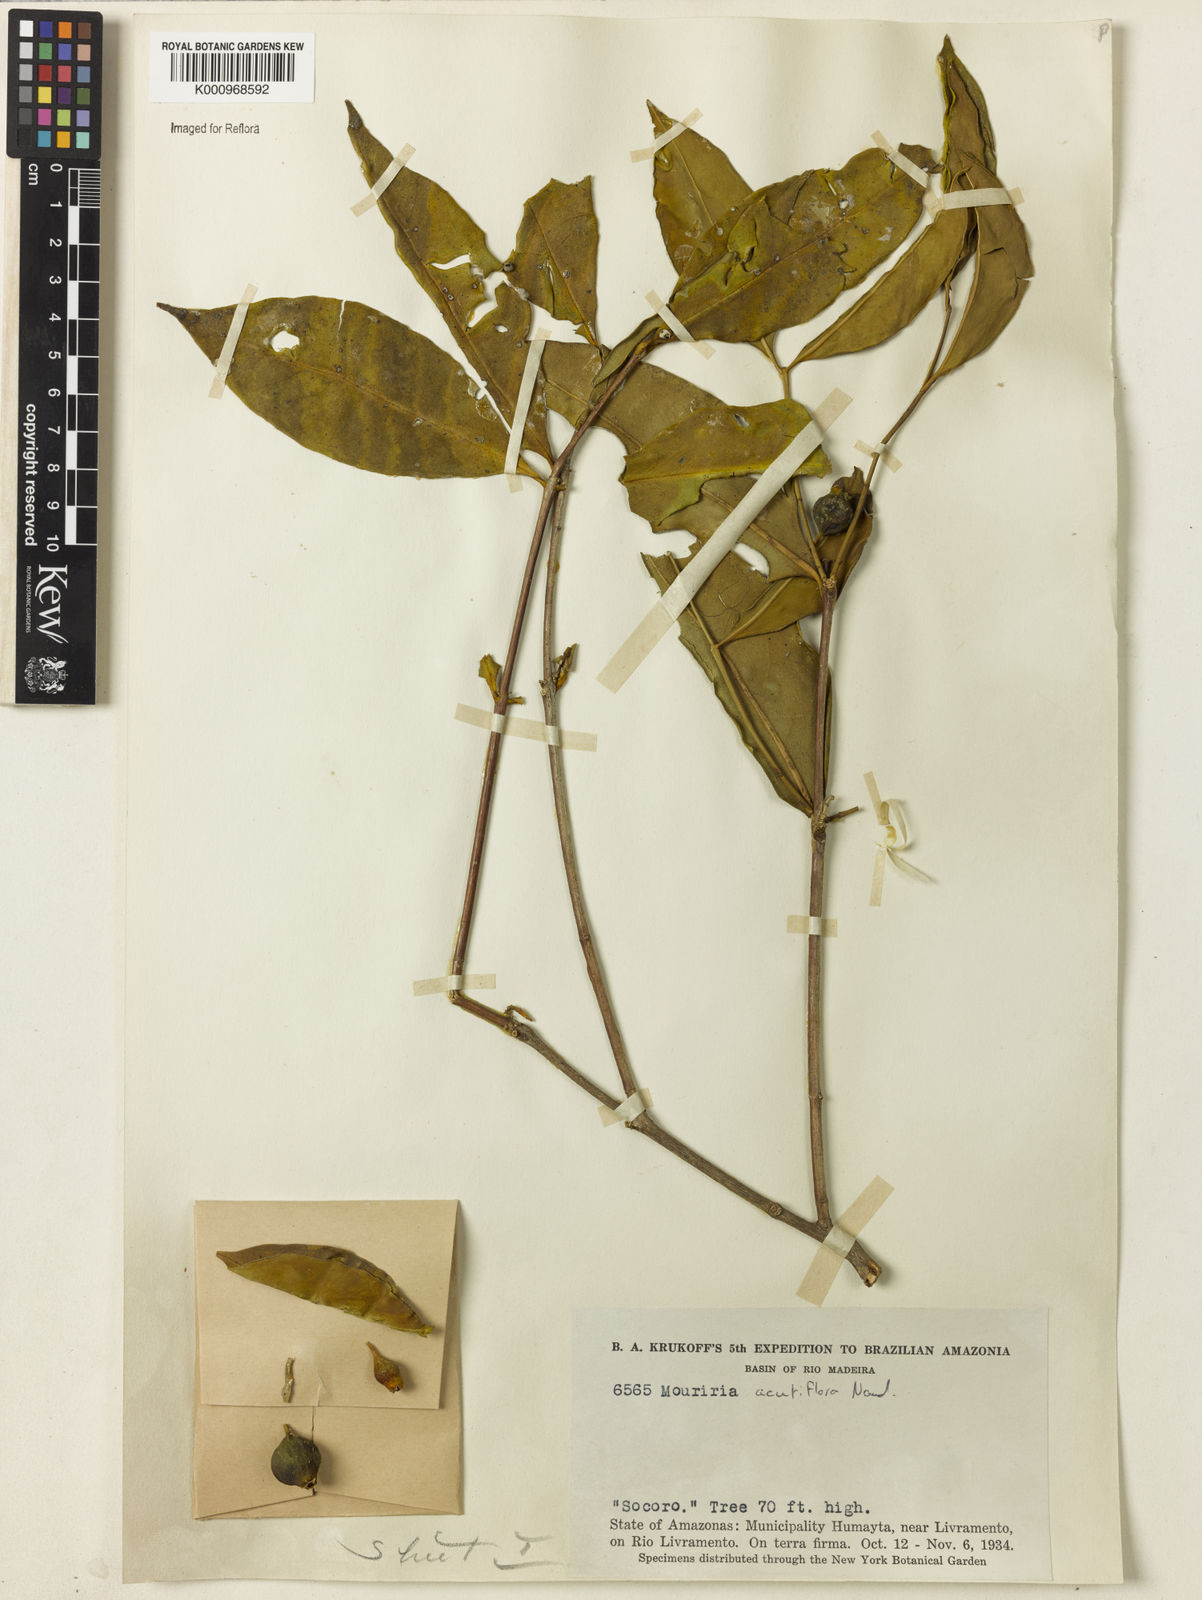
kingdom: Plantae
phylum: Tracheophyta
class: Magnoliopsida
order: Myrtales
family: Melastomataceae
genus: Mouriri
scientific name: Mouriri acutiflora
